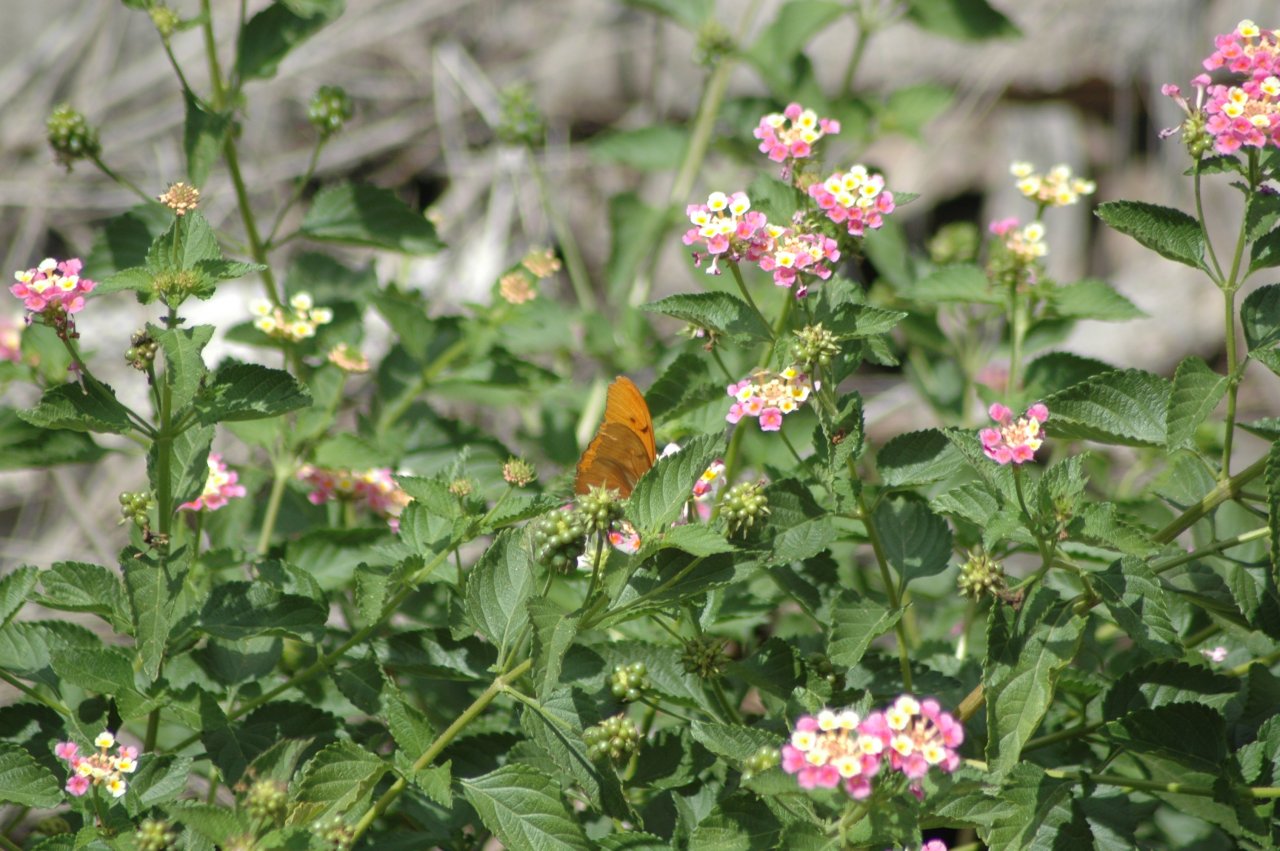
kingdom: Animalia
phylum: Arthropoda
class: Insecta
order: Lepidoptera
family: Nymphalidae
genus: Dryas
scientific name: Dryas iulia
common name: Julia
